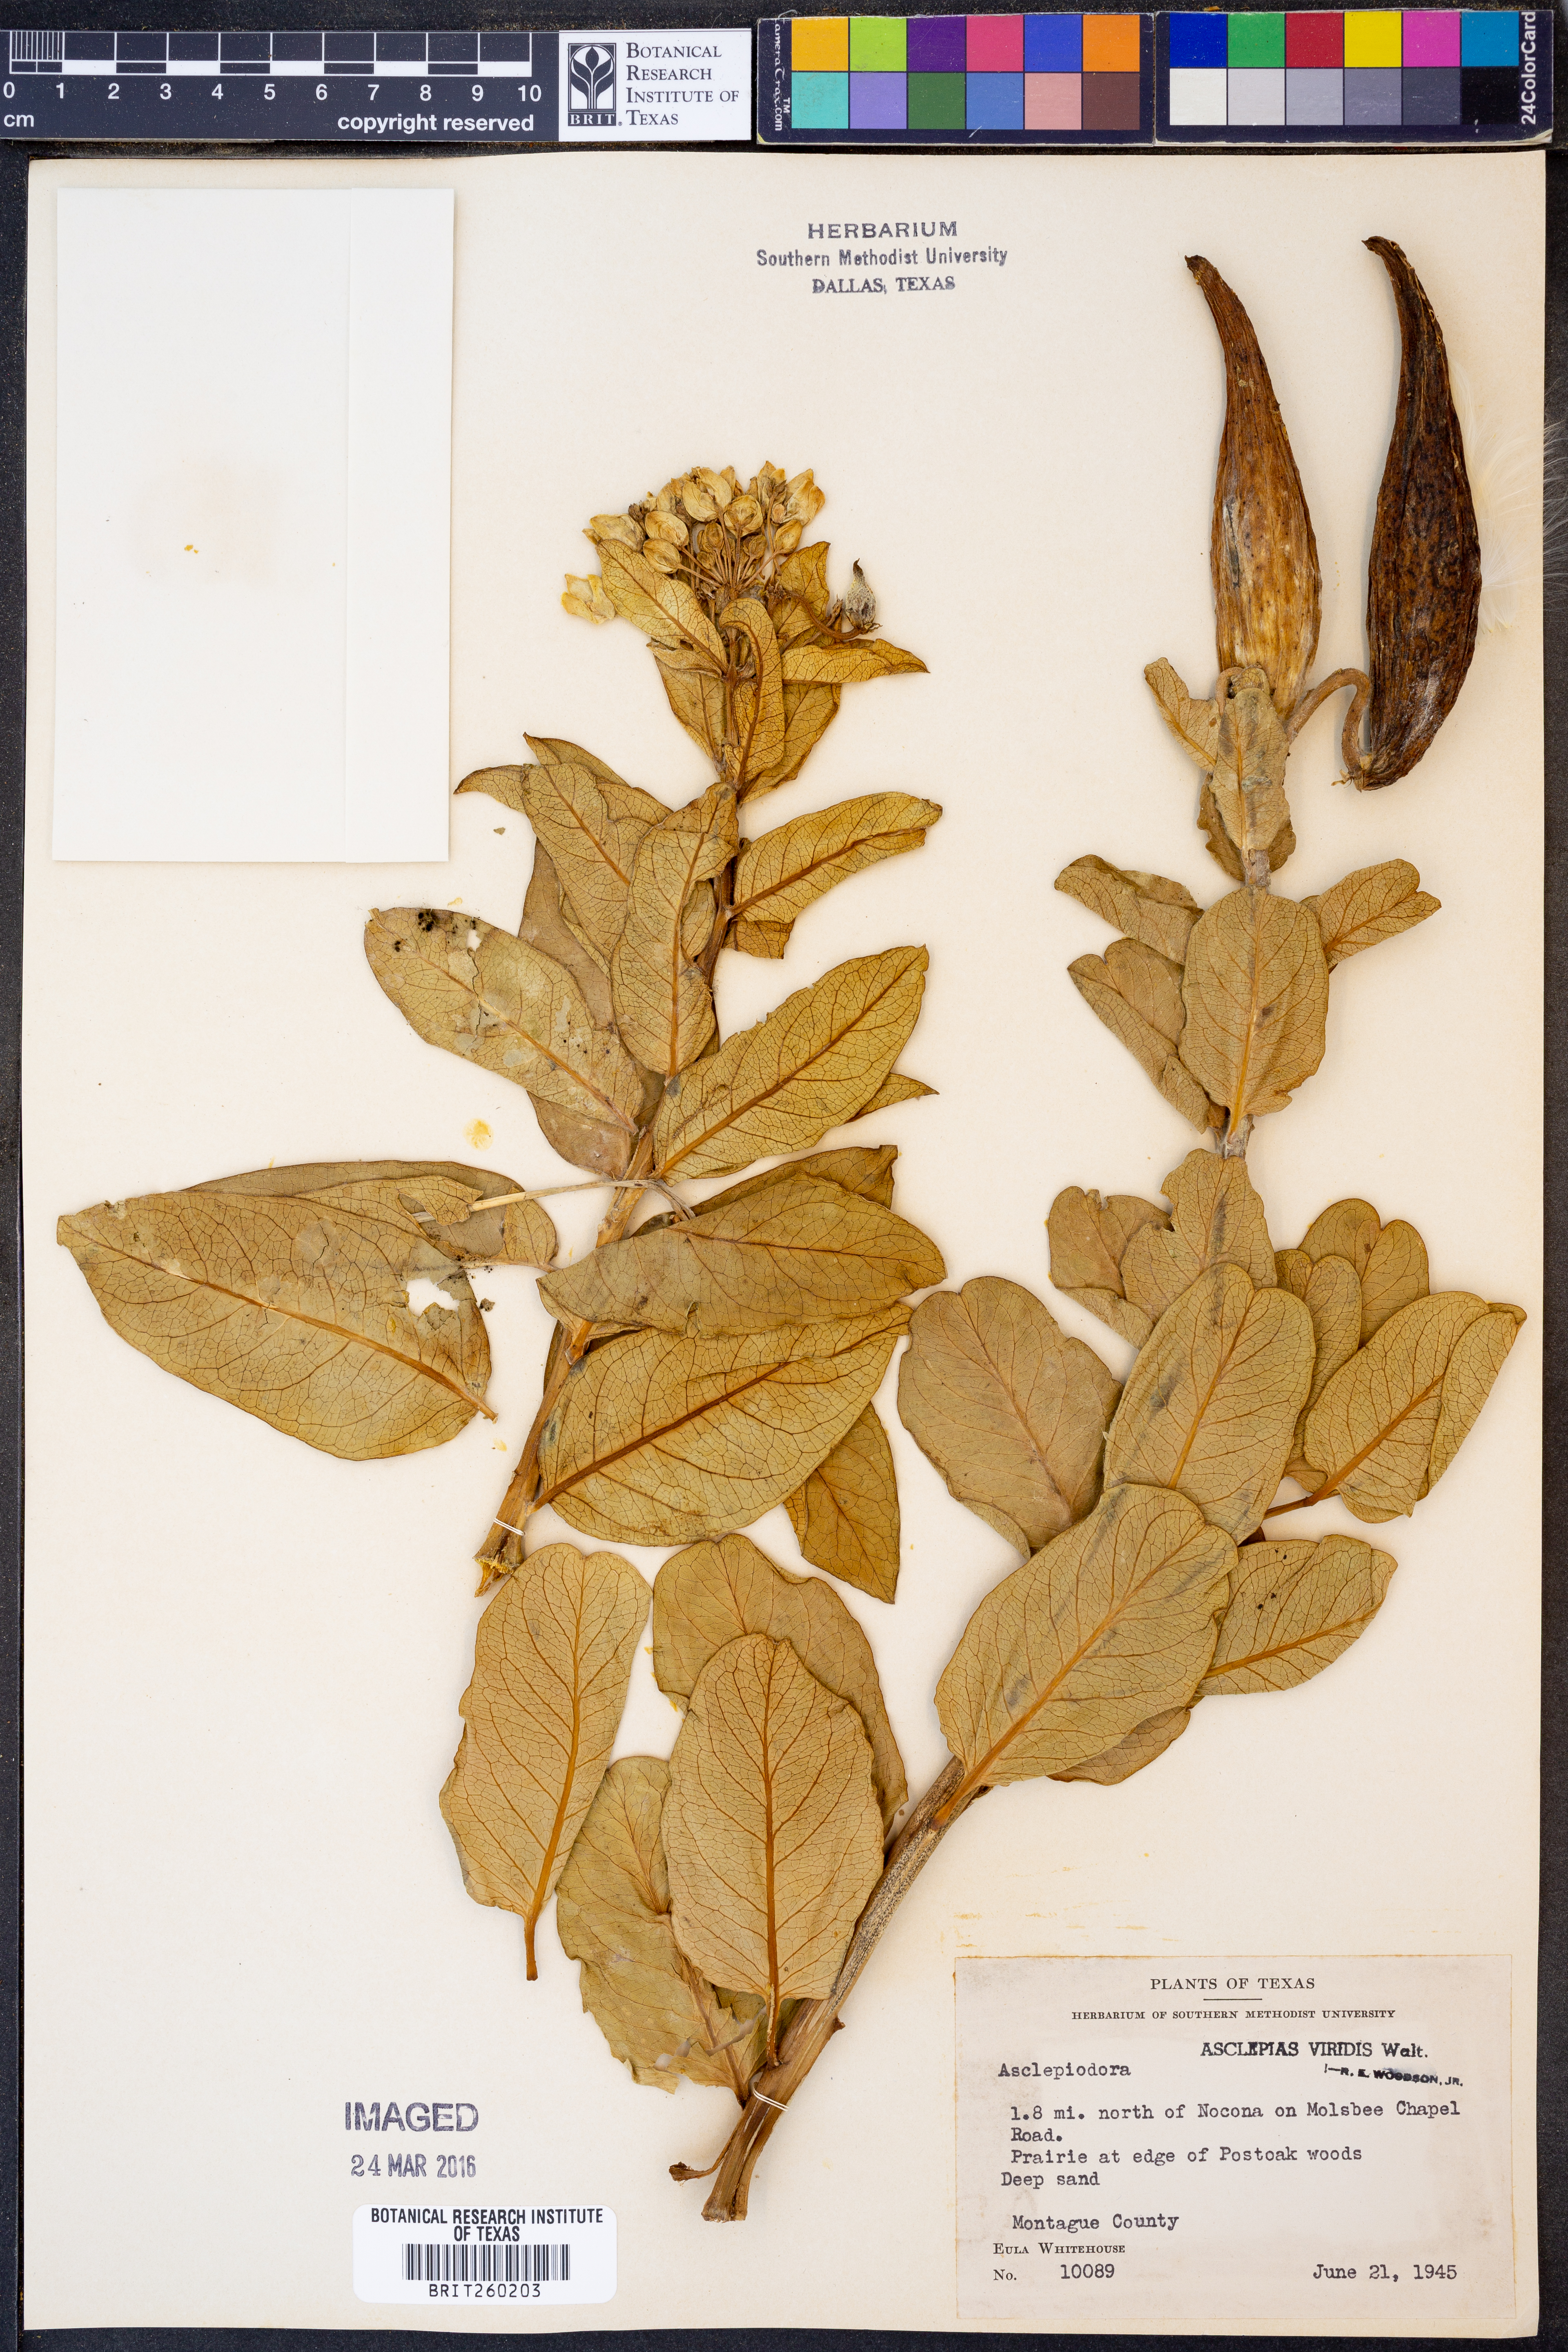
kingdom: Plantae
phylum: Tracheophyta
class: Magnoliopsida
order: Gentianales
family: Apocynaceae
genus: Asclepias
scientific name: Asclepias viridis
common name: Antelope-horns
